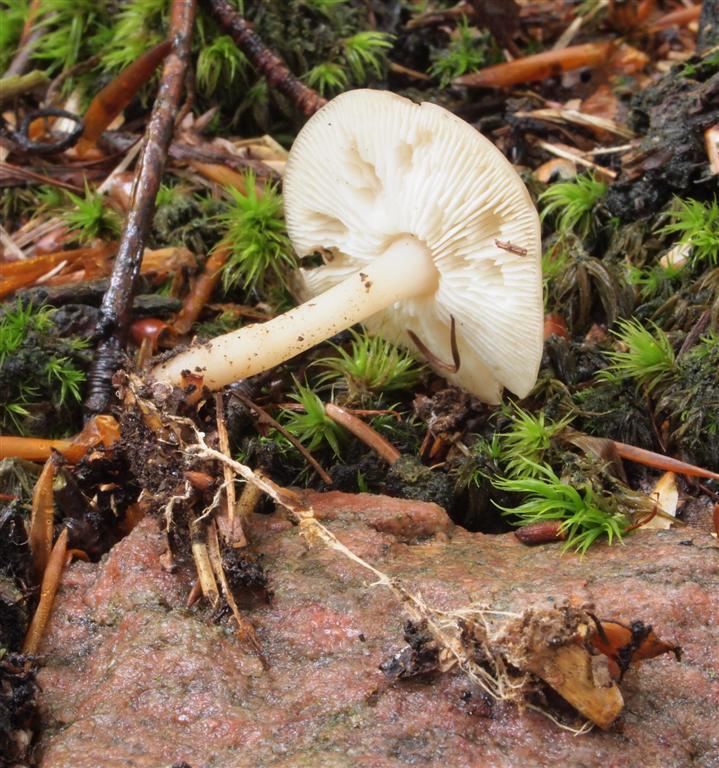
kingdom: Fungi
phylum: Basidiomycota
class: Agaricomycetes
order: Agaricales
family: Omphalotaceae
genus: Gymnopus
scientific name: Gymnopus dryophilus
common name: løv-fladhat
